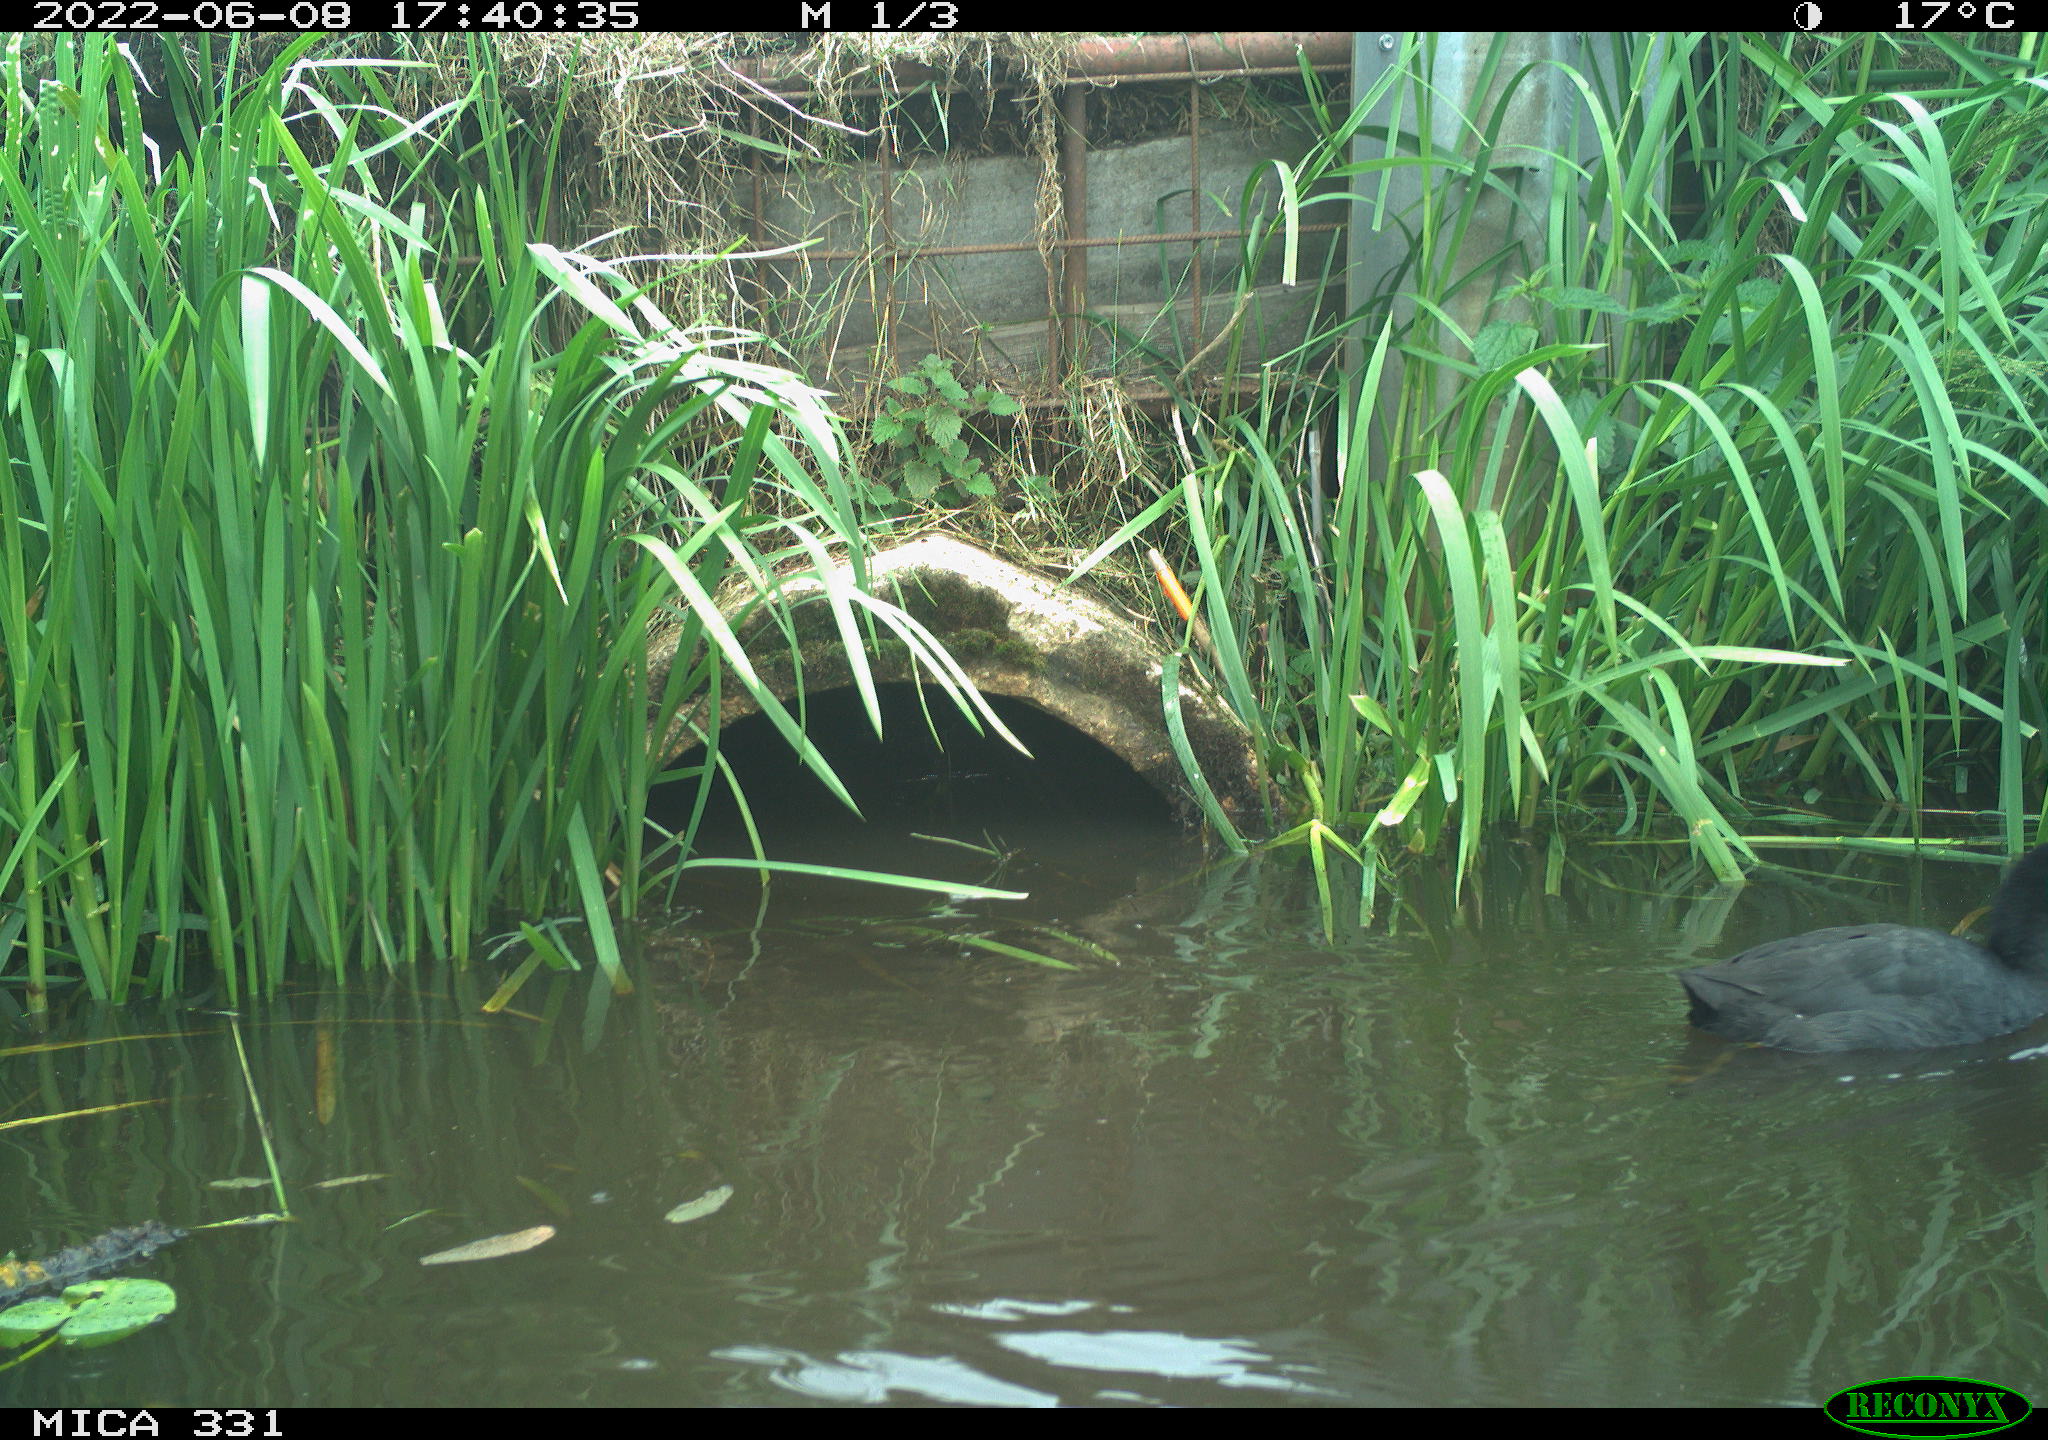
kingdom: Animalia
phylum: Chordata
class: Aves
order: Gruiformes
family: Rallidae
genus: Fulica
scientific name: Fulica atra
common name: Eurasian coot
